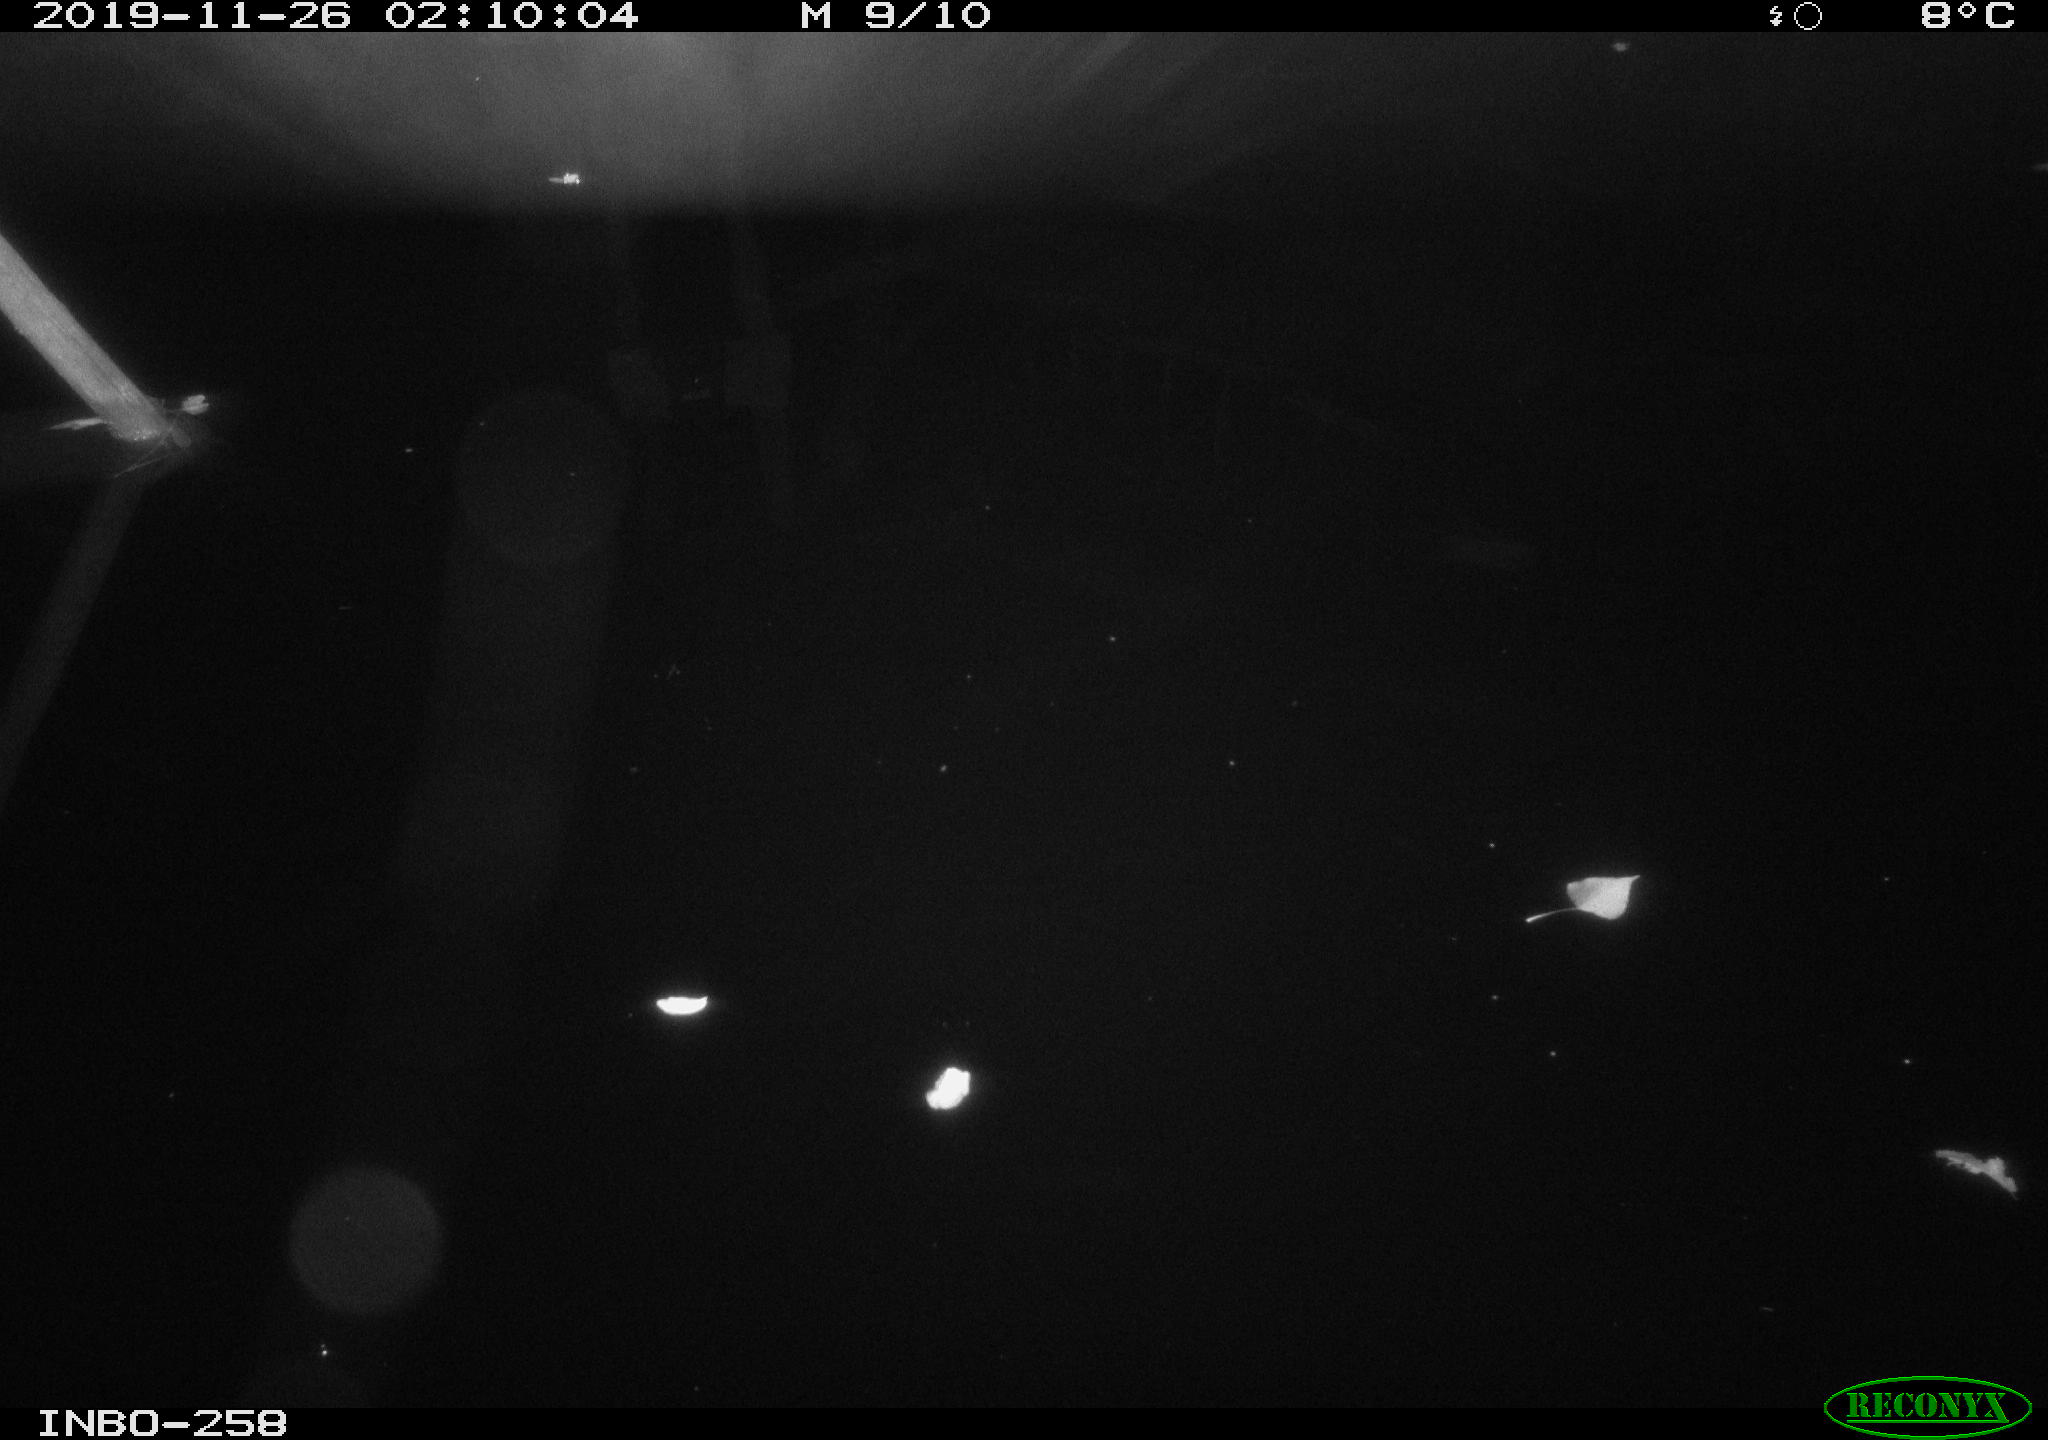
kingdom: Animalia
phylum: Chordata
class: Aves
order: Anseriformes
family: Anatidae
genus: Anas
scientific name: Anas platyrhynchos
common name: Mallard
